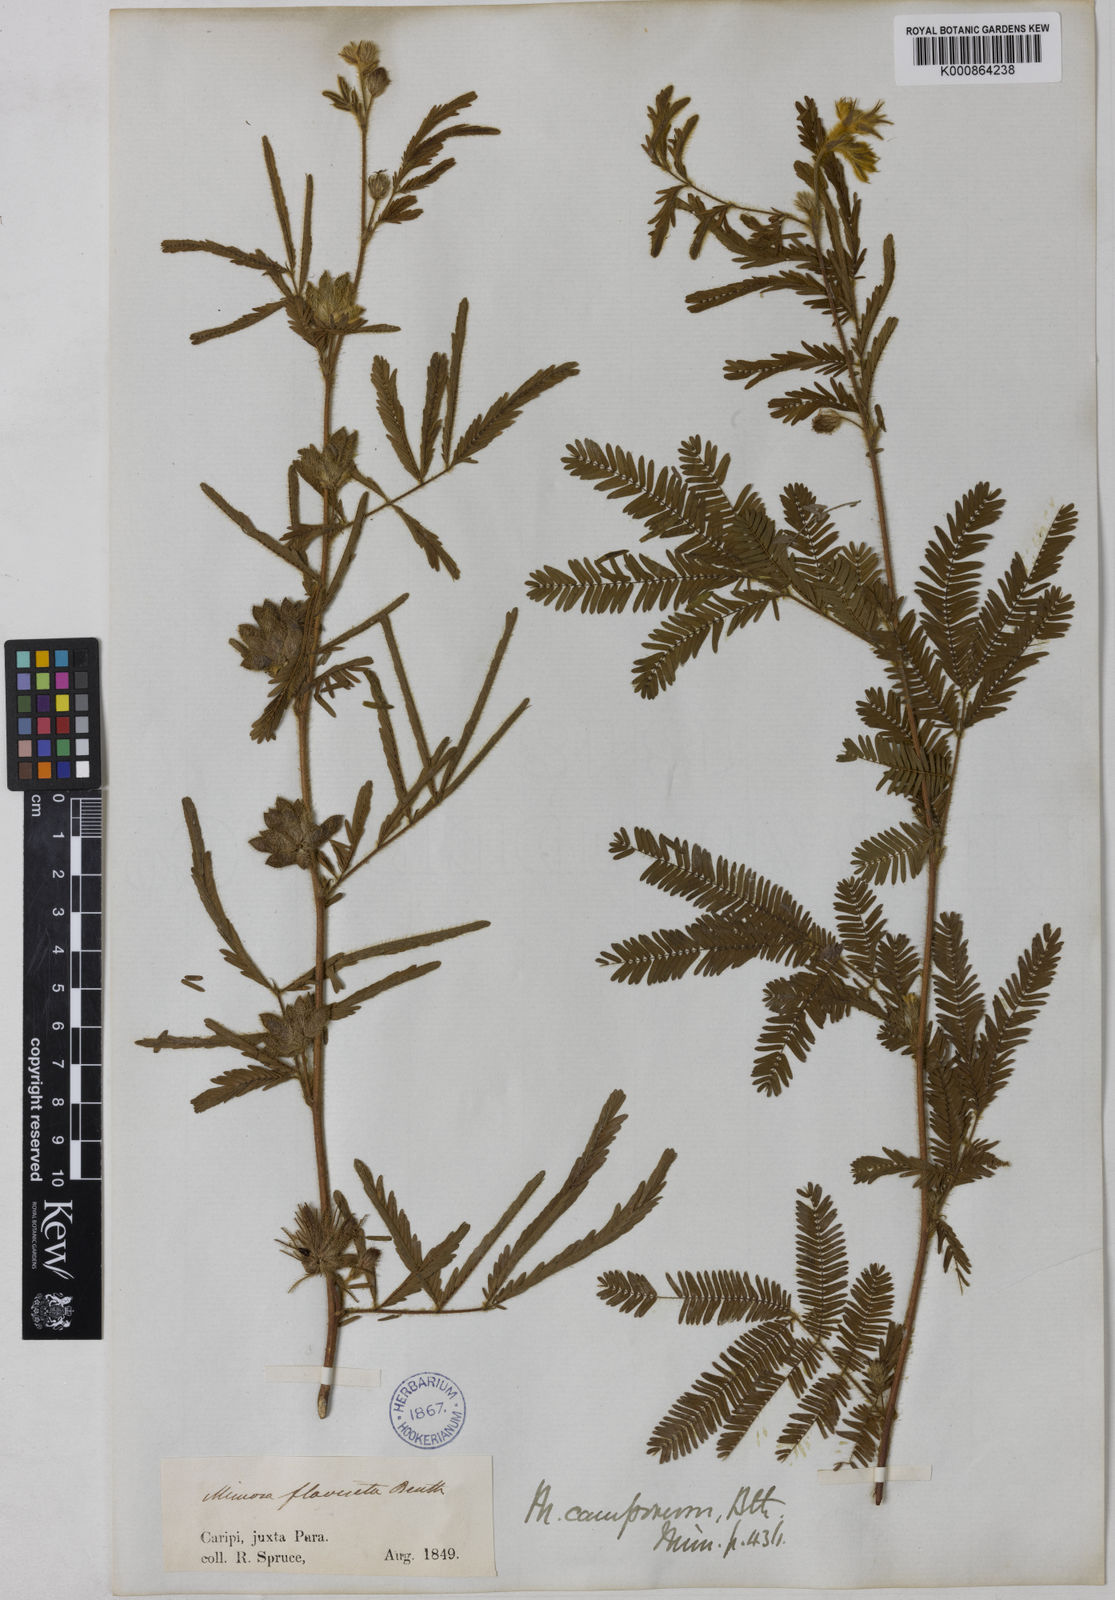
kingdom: Plantae
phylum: Tracheophyta
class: Magnoliopsida
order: Fabales
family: Fabaceae
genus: Mimosa
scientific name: Mimosa camporum
